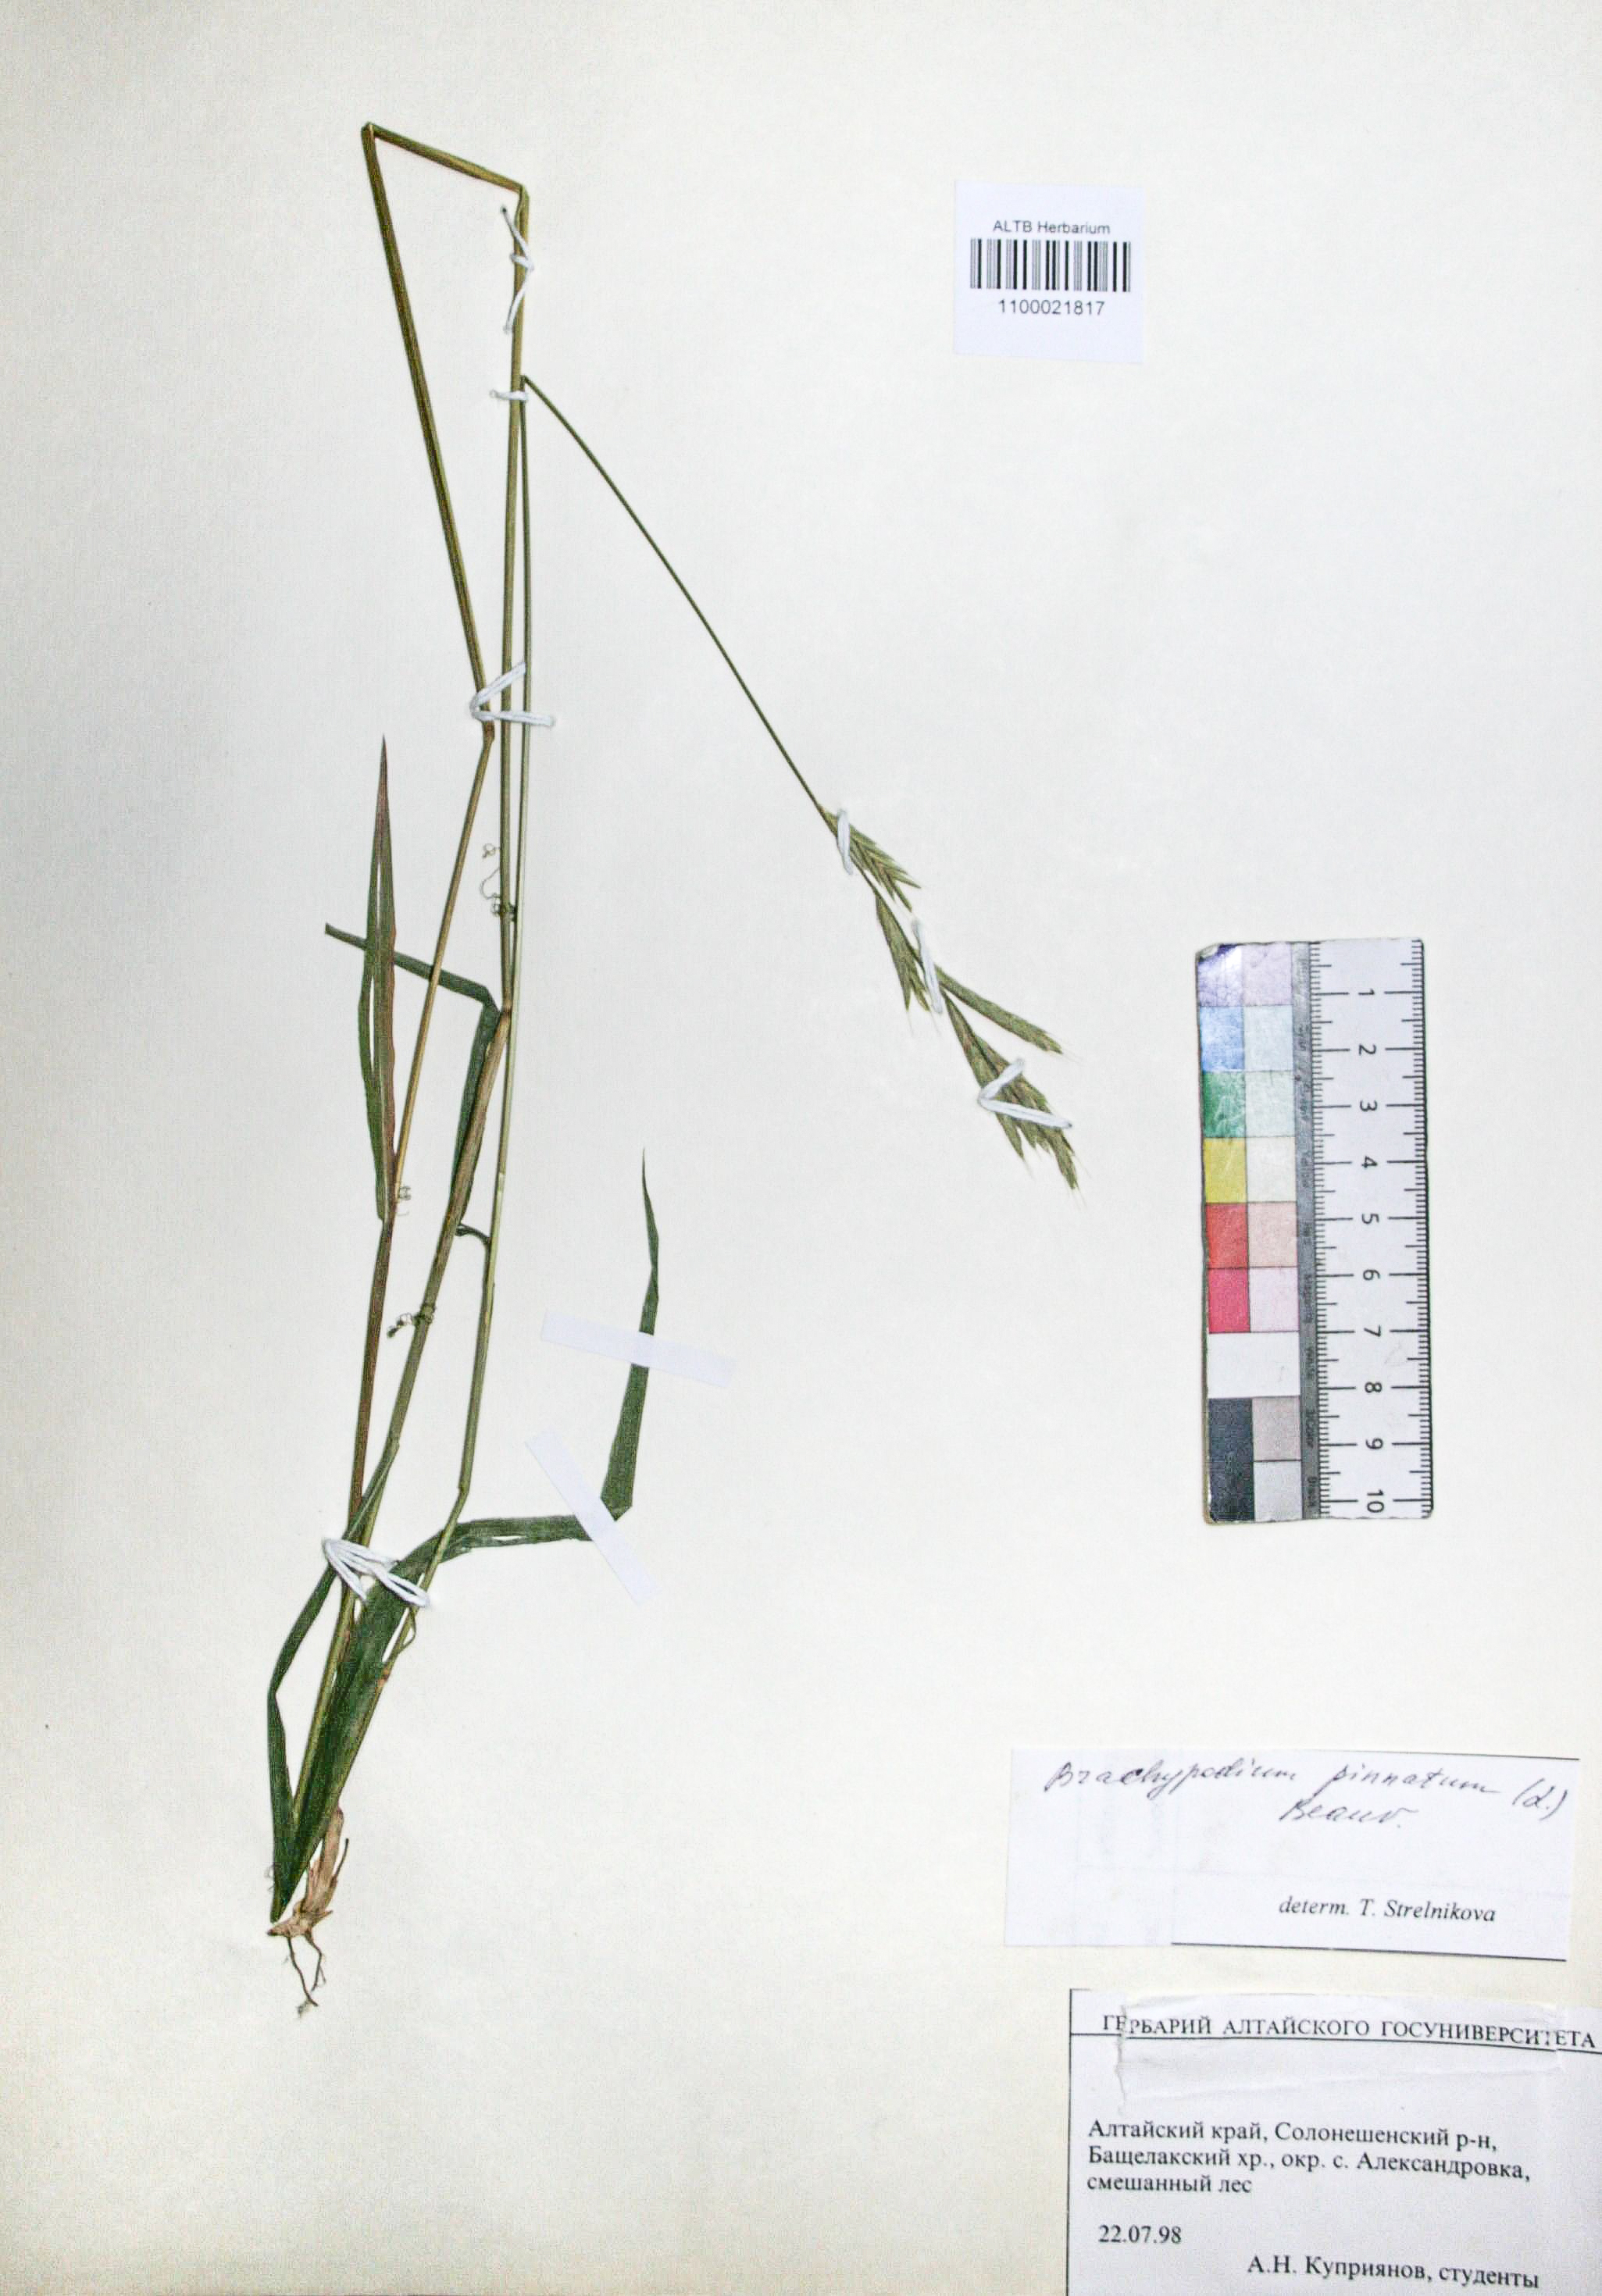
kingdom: Plantae
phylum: Tracheophyta
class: Liliopsida
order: Poales
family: Poaceae
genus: Brachypodium
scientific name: Brachypodium pinnatum
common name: Tor grass
